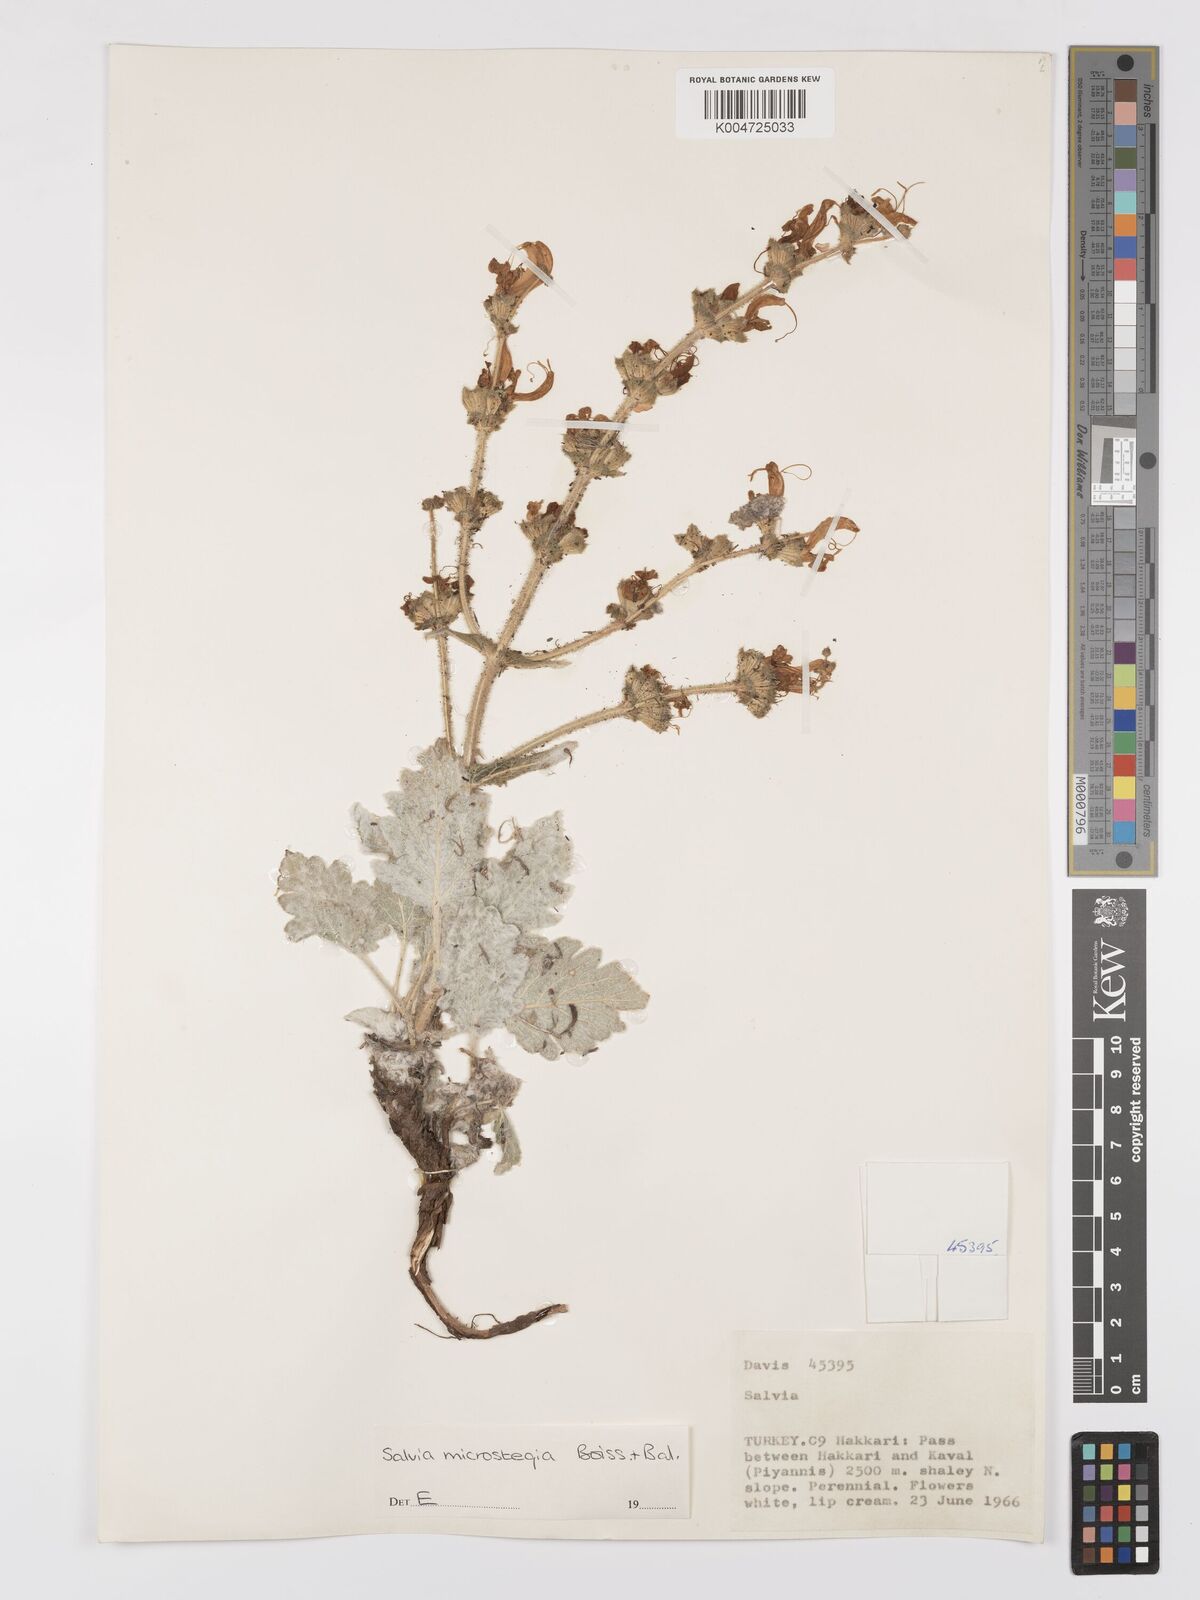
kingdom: Plantae
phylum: Tracheophyta
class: Magnoliopsida
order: Lamiales
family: Lamiaceae
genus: Salvia
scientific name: Salvia microstegia
